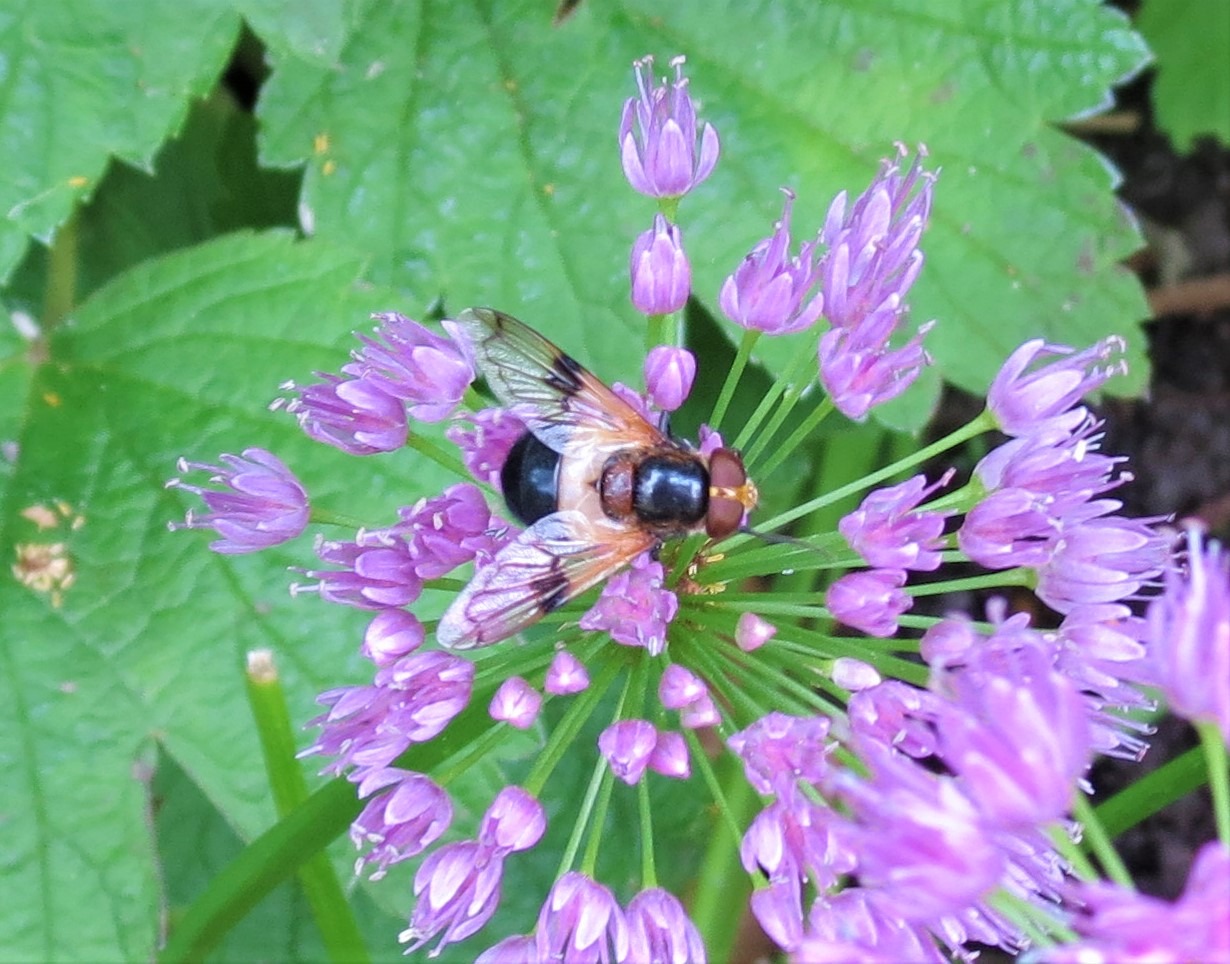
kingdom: Animalia
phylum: Arthropoda
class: Insecta
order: Diptera
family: Syrphidae
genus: Volucella
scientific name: Volucella pellucens
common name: Hvidbåndet humlesvirreflue
